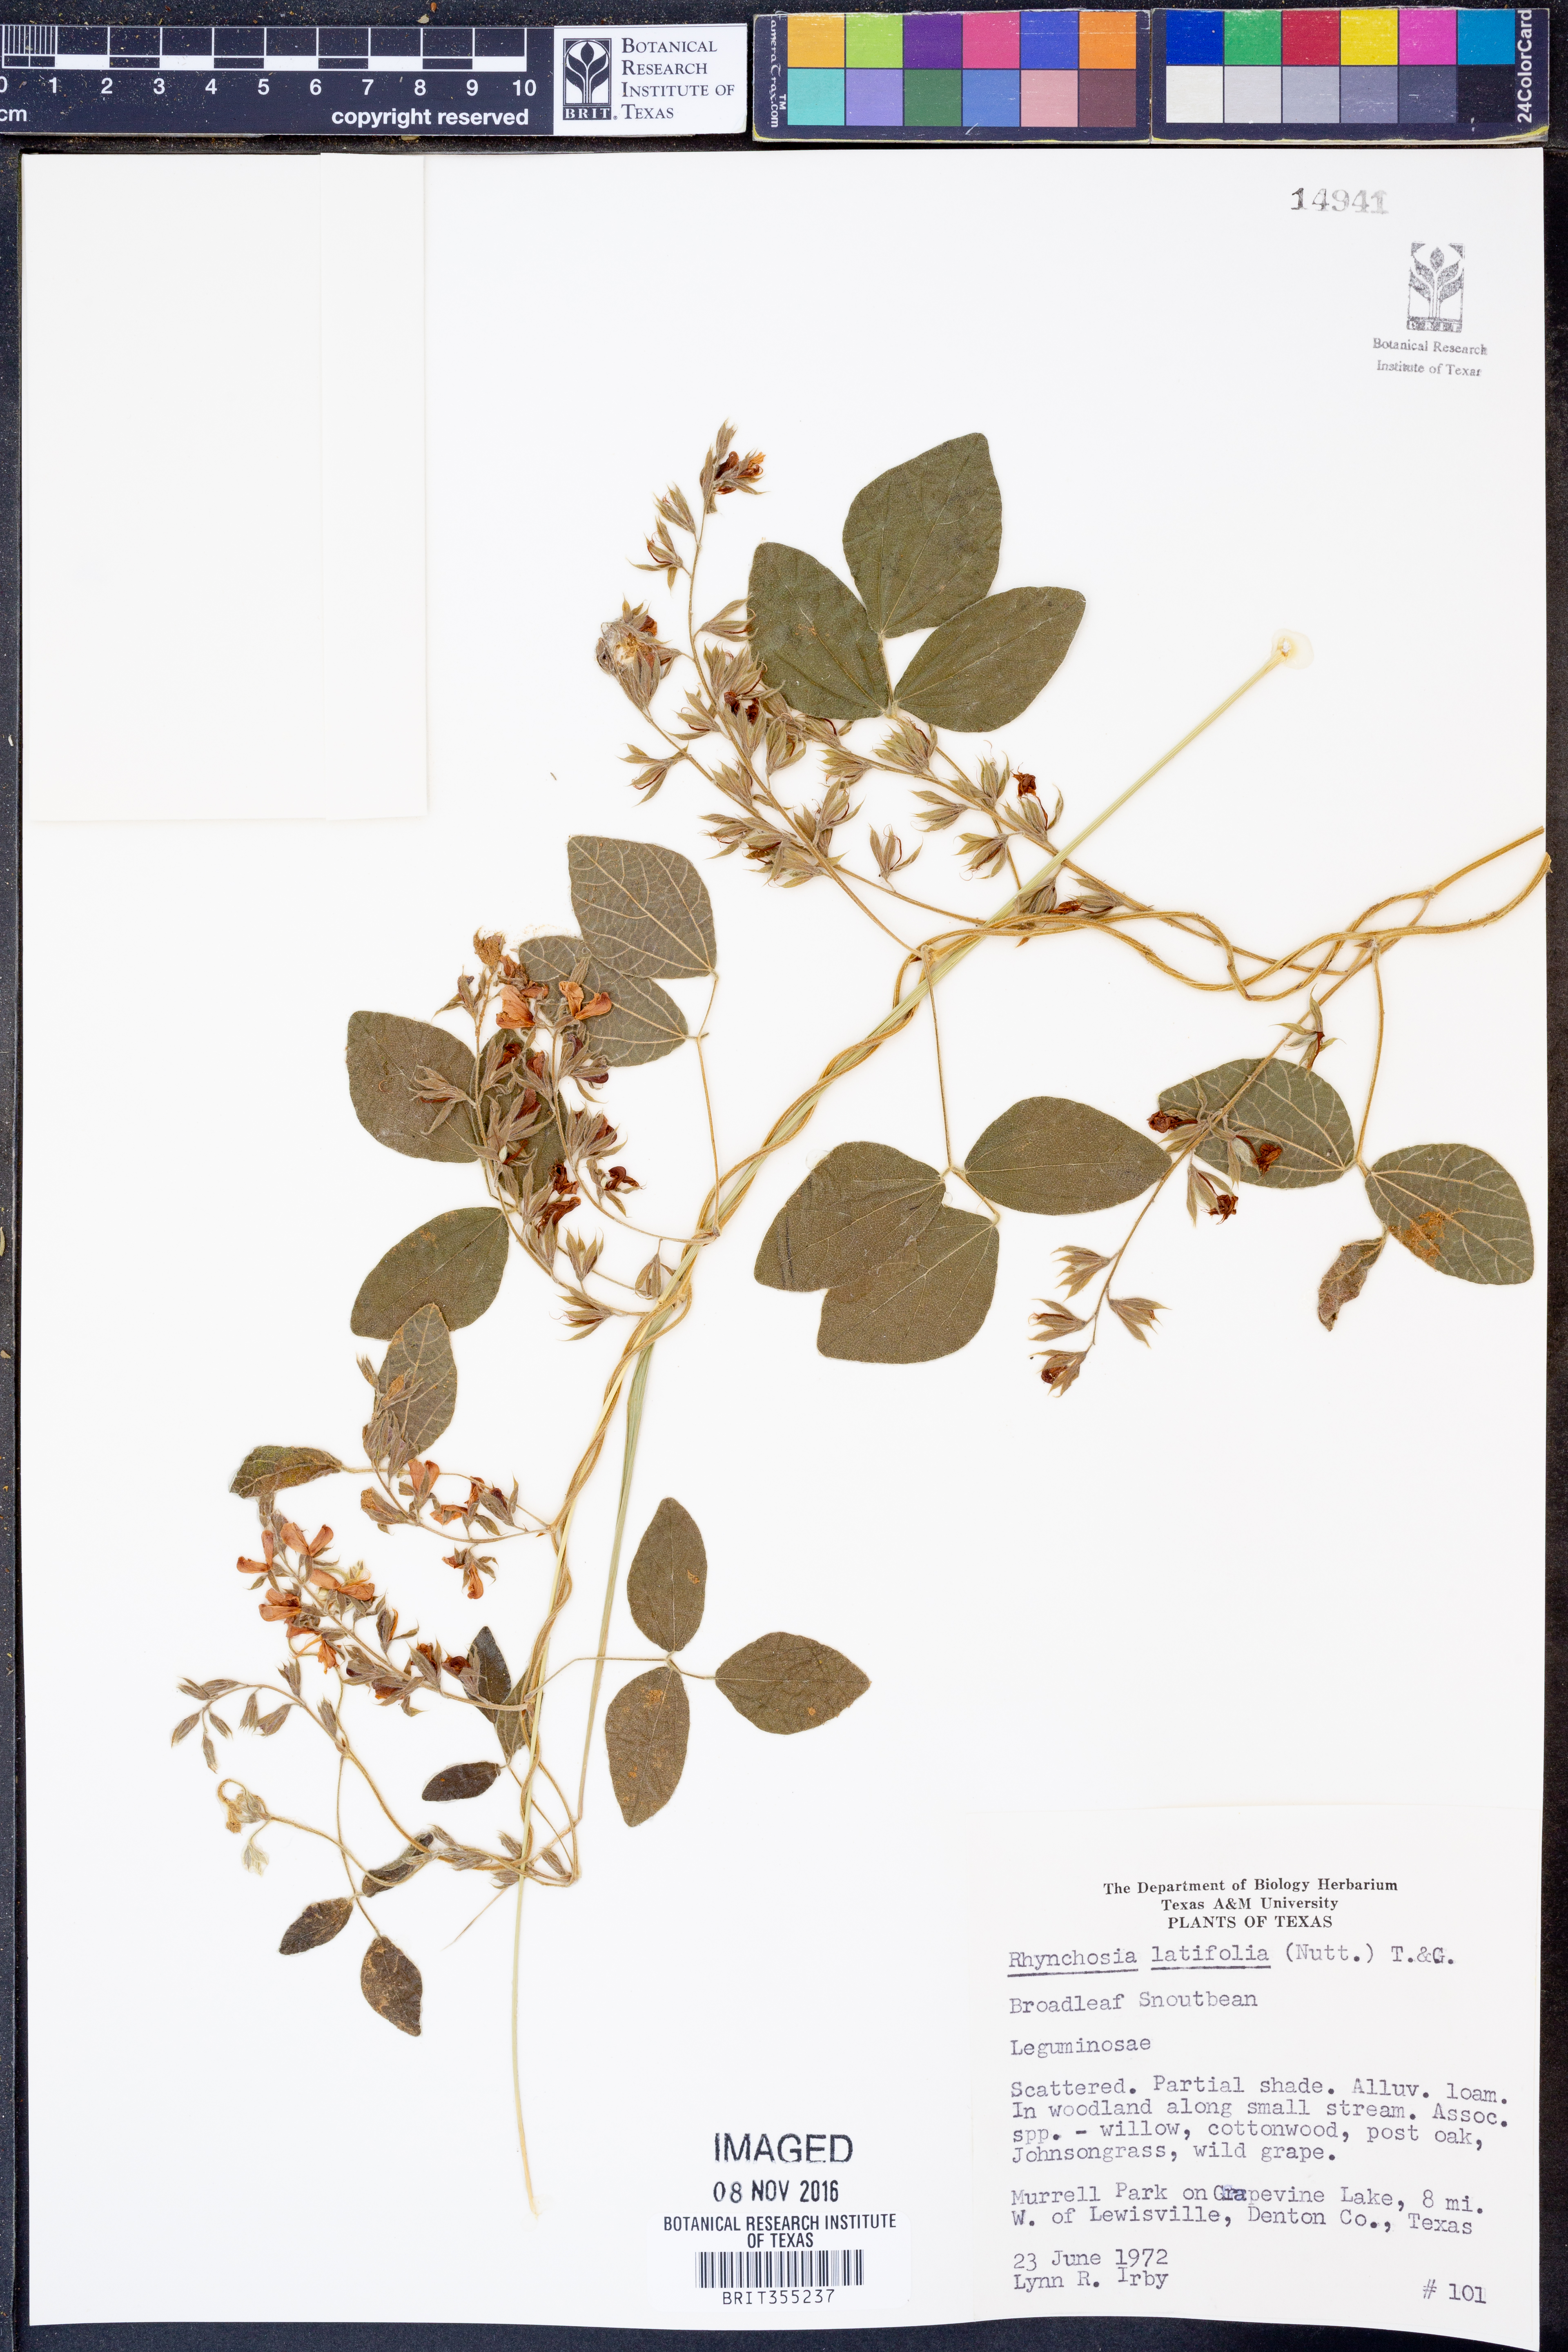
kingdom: Plantae
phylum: Tracheophyta
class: Magnoliopsida
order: Fabales
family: Fabaceae
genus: Rhynchosia
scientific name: Rhynchosia latifolia
